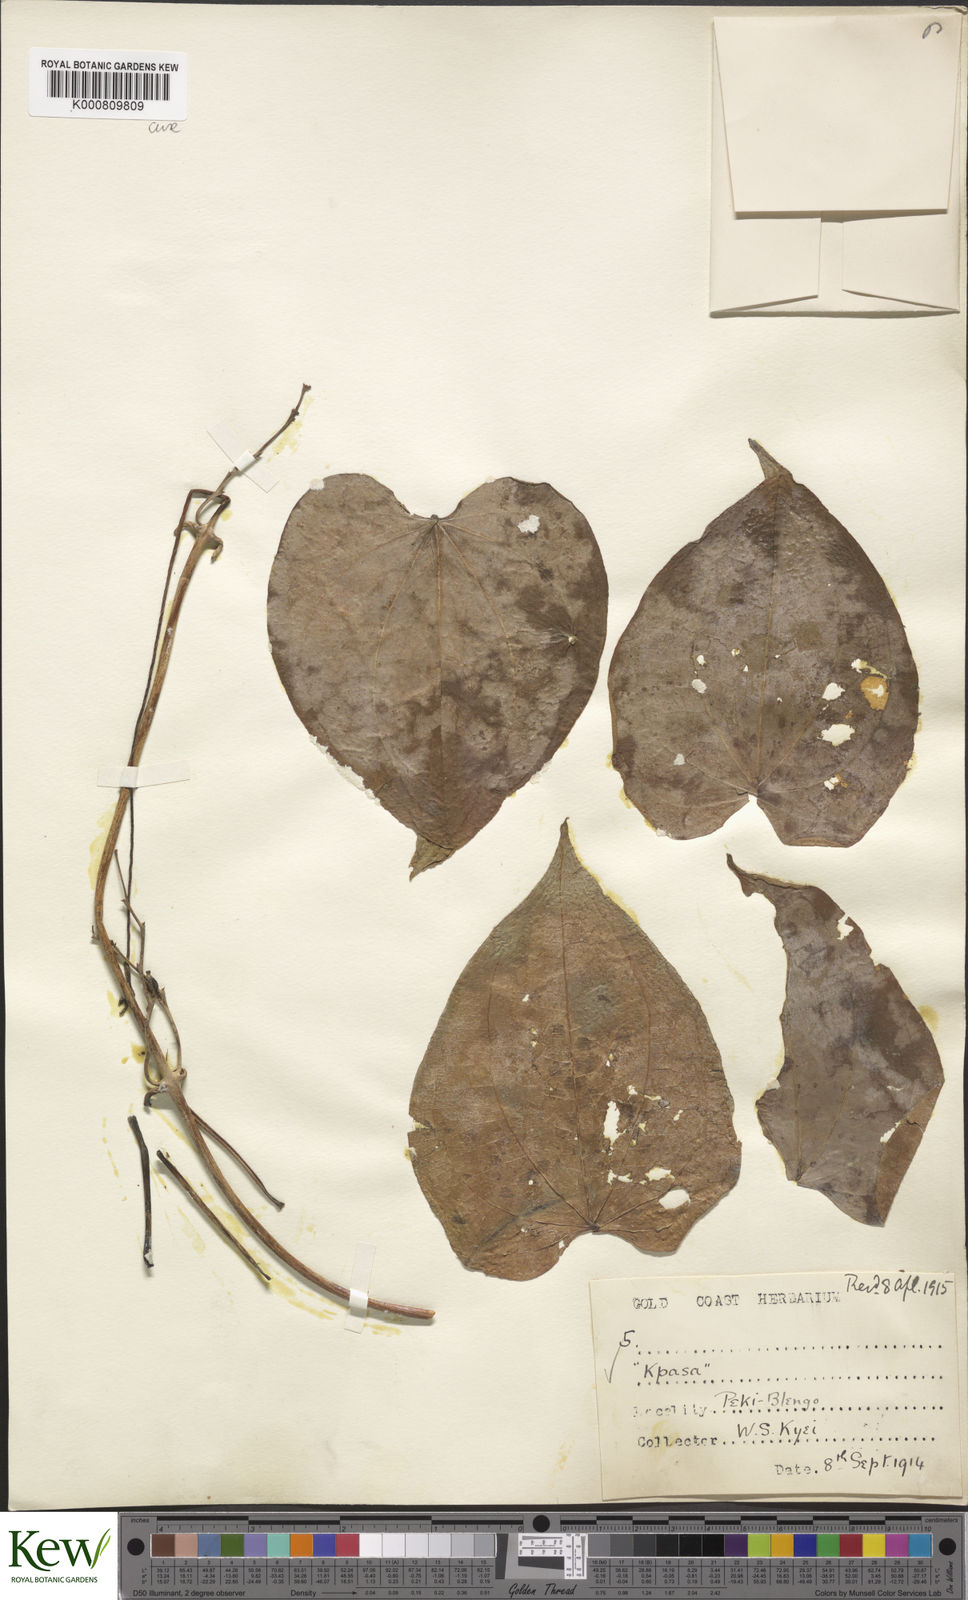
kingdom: Plantae
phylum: Tracheophyta
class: Liliopsida
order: Dioscoreales
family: Dioscoreaceae
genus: Dioscorea
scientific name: Dioscorea cayenensis
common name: Attoto yam
